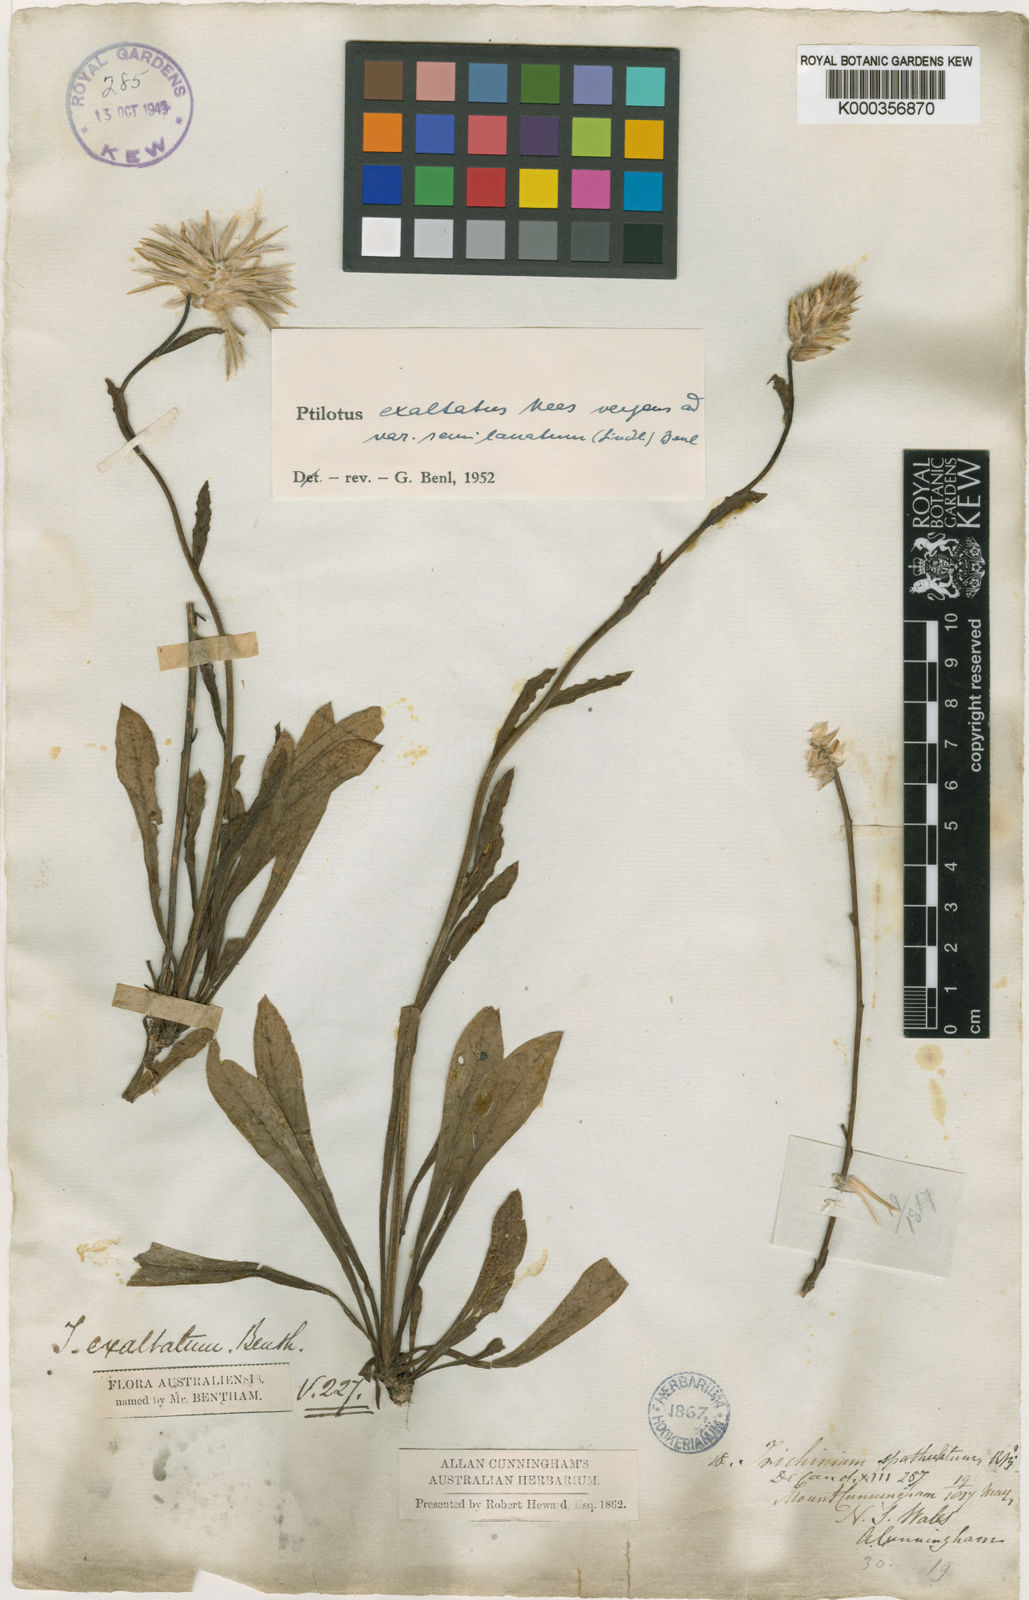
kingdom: Plantae
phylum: Tracheophyta
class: Magnoliopsida
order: Caryophyllales
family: Amaranthaceae
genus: Ptilotus
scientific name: Ptilotus semilanatus
